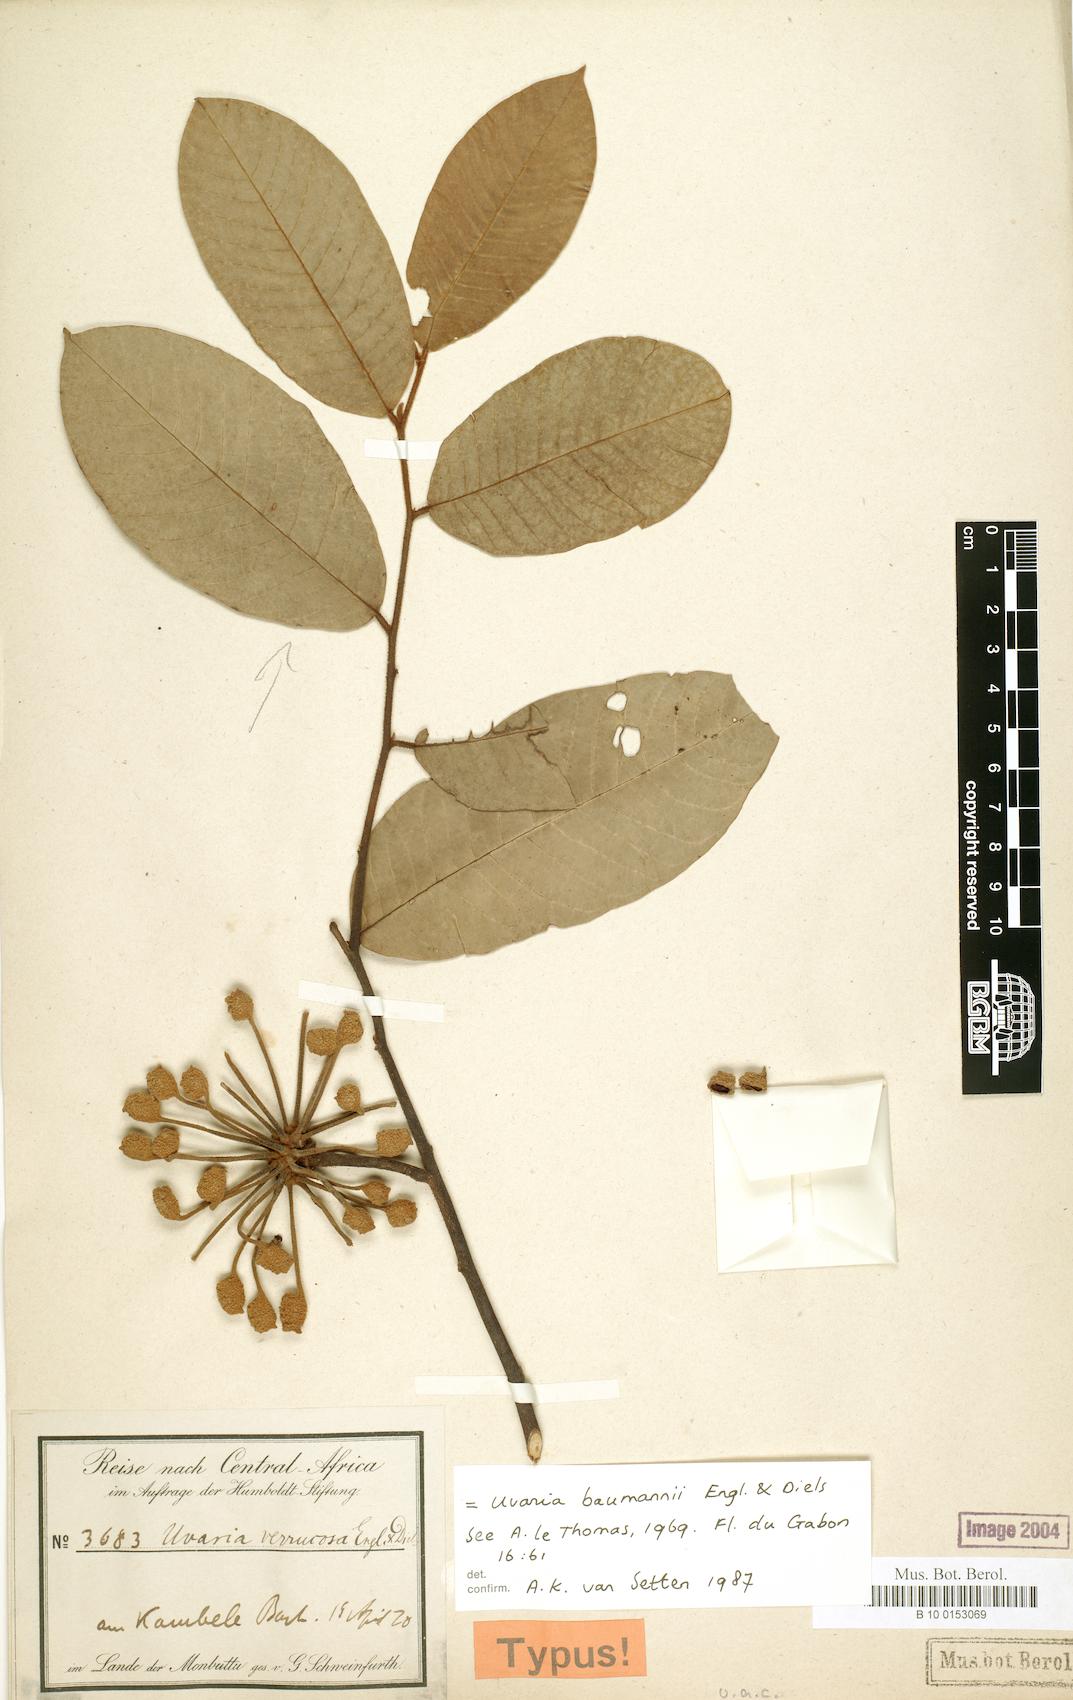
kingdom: Plantae
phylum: Tracheophyta
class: Magnoliopsida
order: Magnoliales
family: Annonaceae
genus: Uvaria
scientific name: Uvaria baumannii
